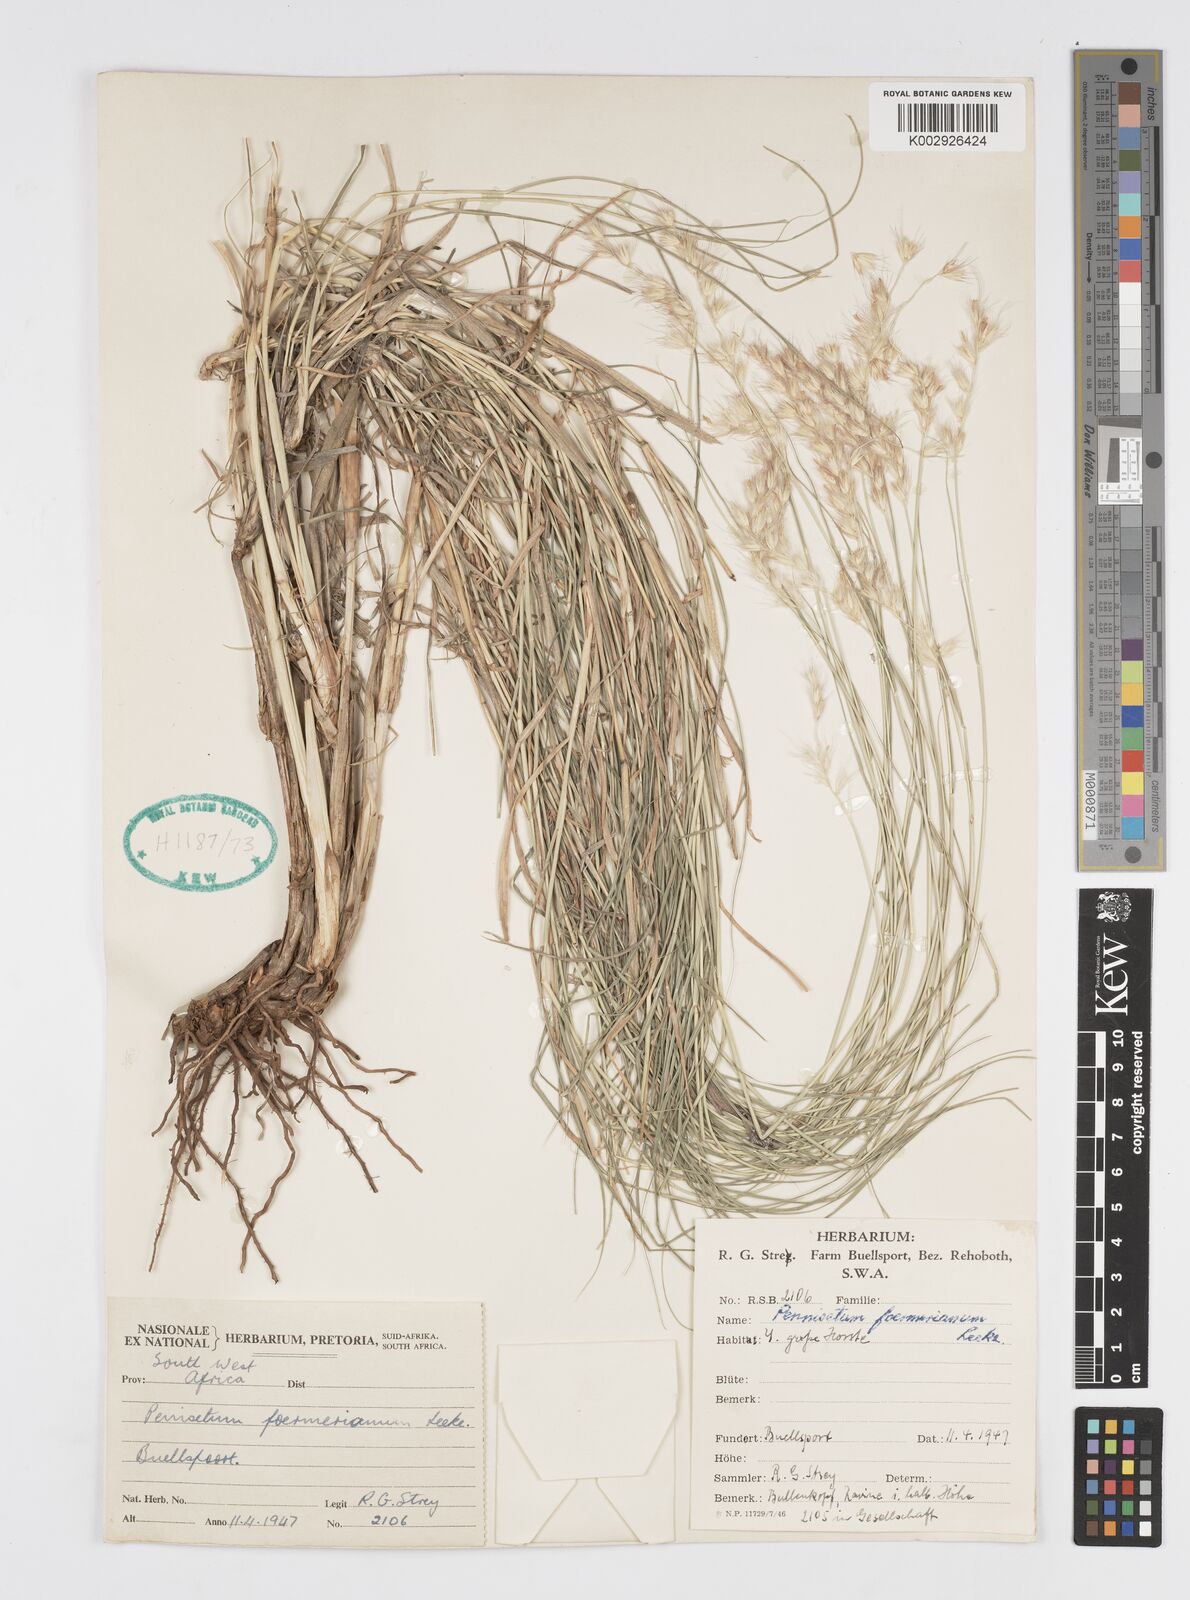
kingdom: Plantae
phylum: Tracheophyta
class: Liliopsida
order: Poales
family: Poaceae
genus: Cenchrus
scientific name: Cenchrus foermerianus
